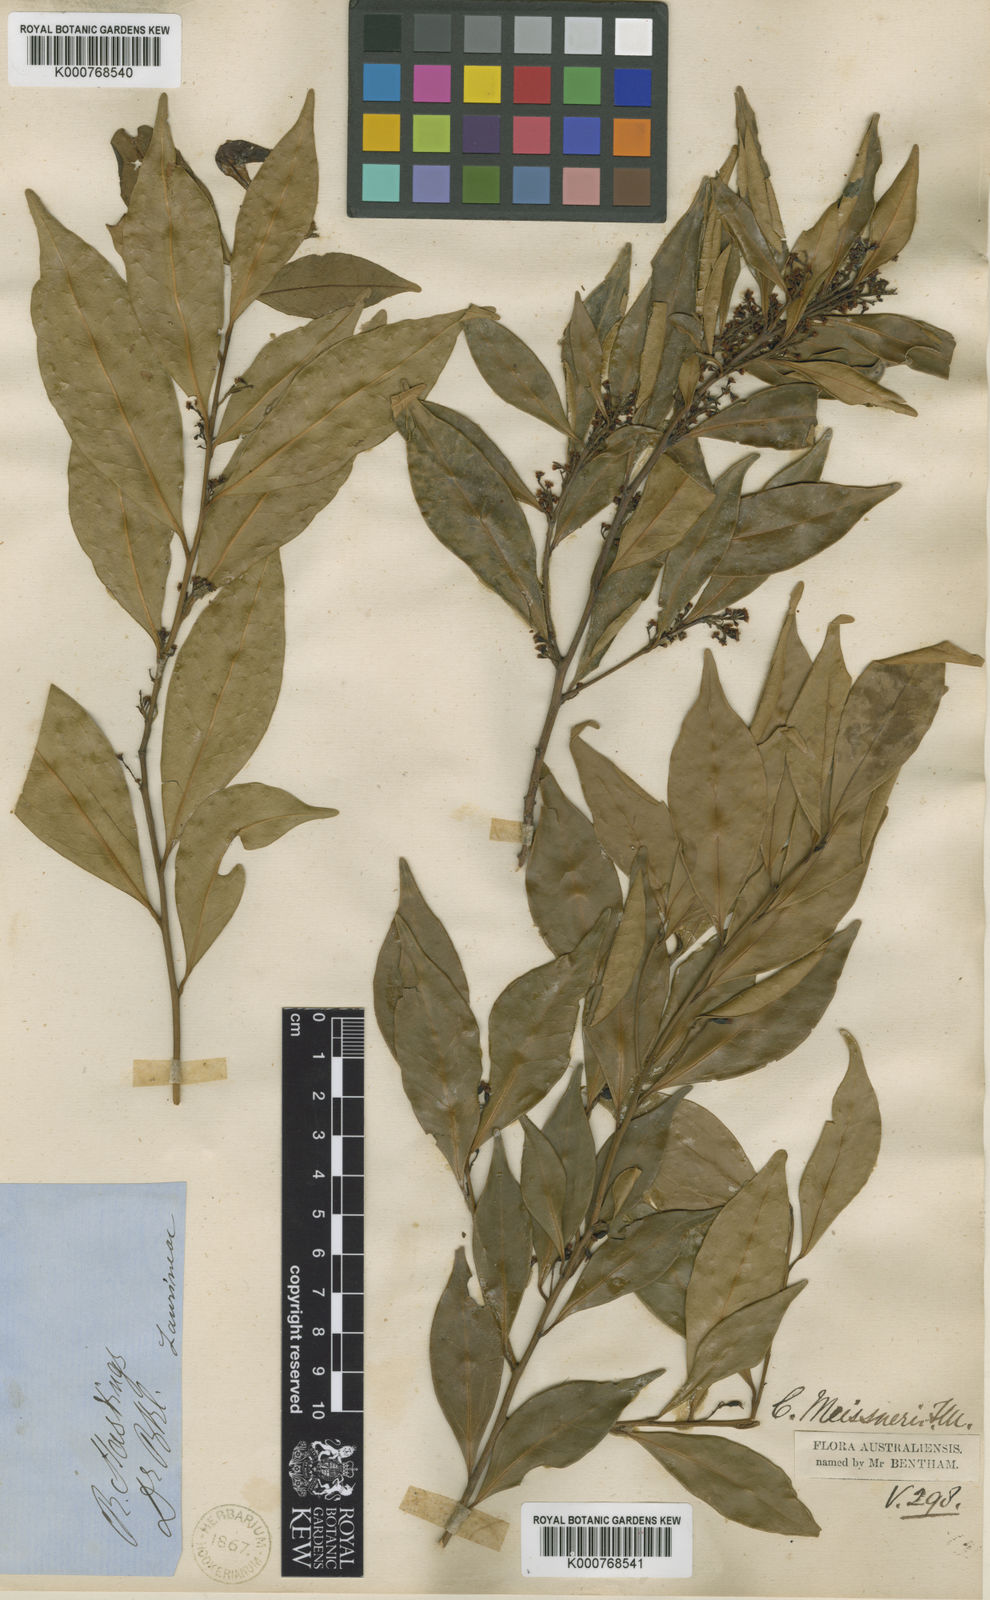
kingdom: Plantae
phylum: Tracheophyta
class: Magnoliopsida
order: Laurales
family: Lauraceae
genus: Cryptocarya
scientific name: Cryptocarya meisneriana
